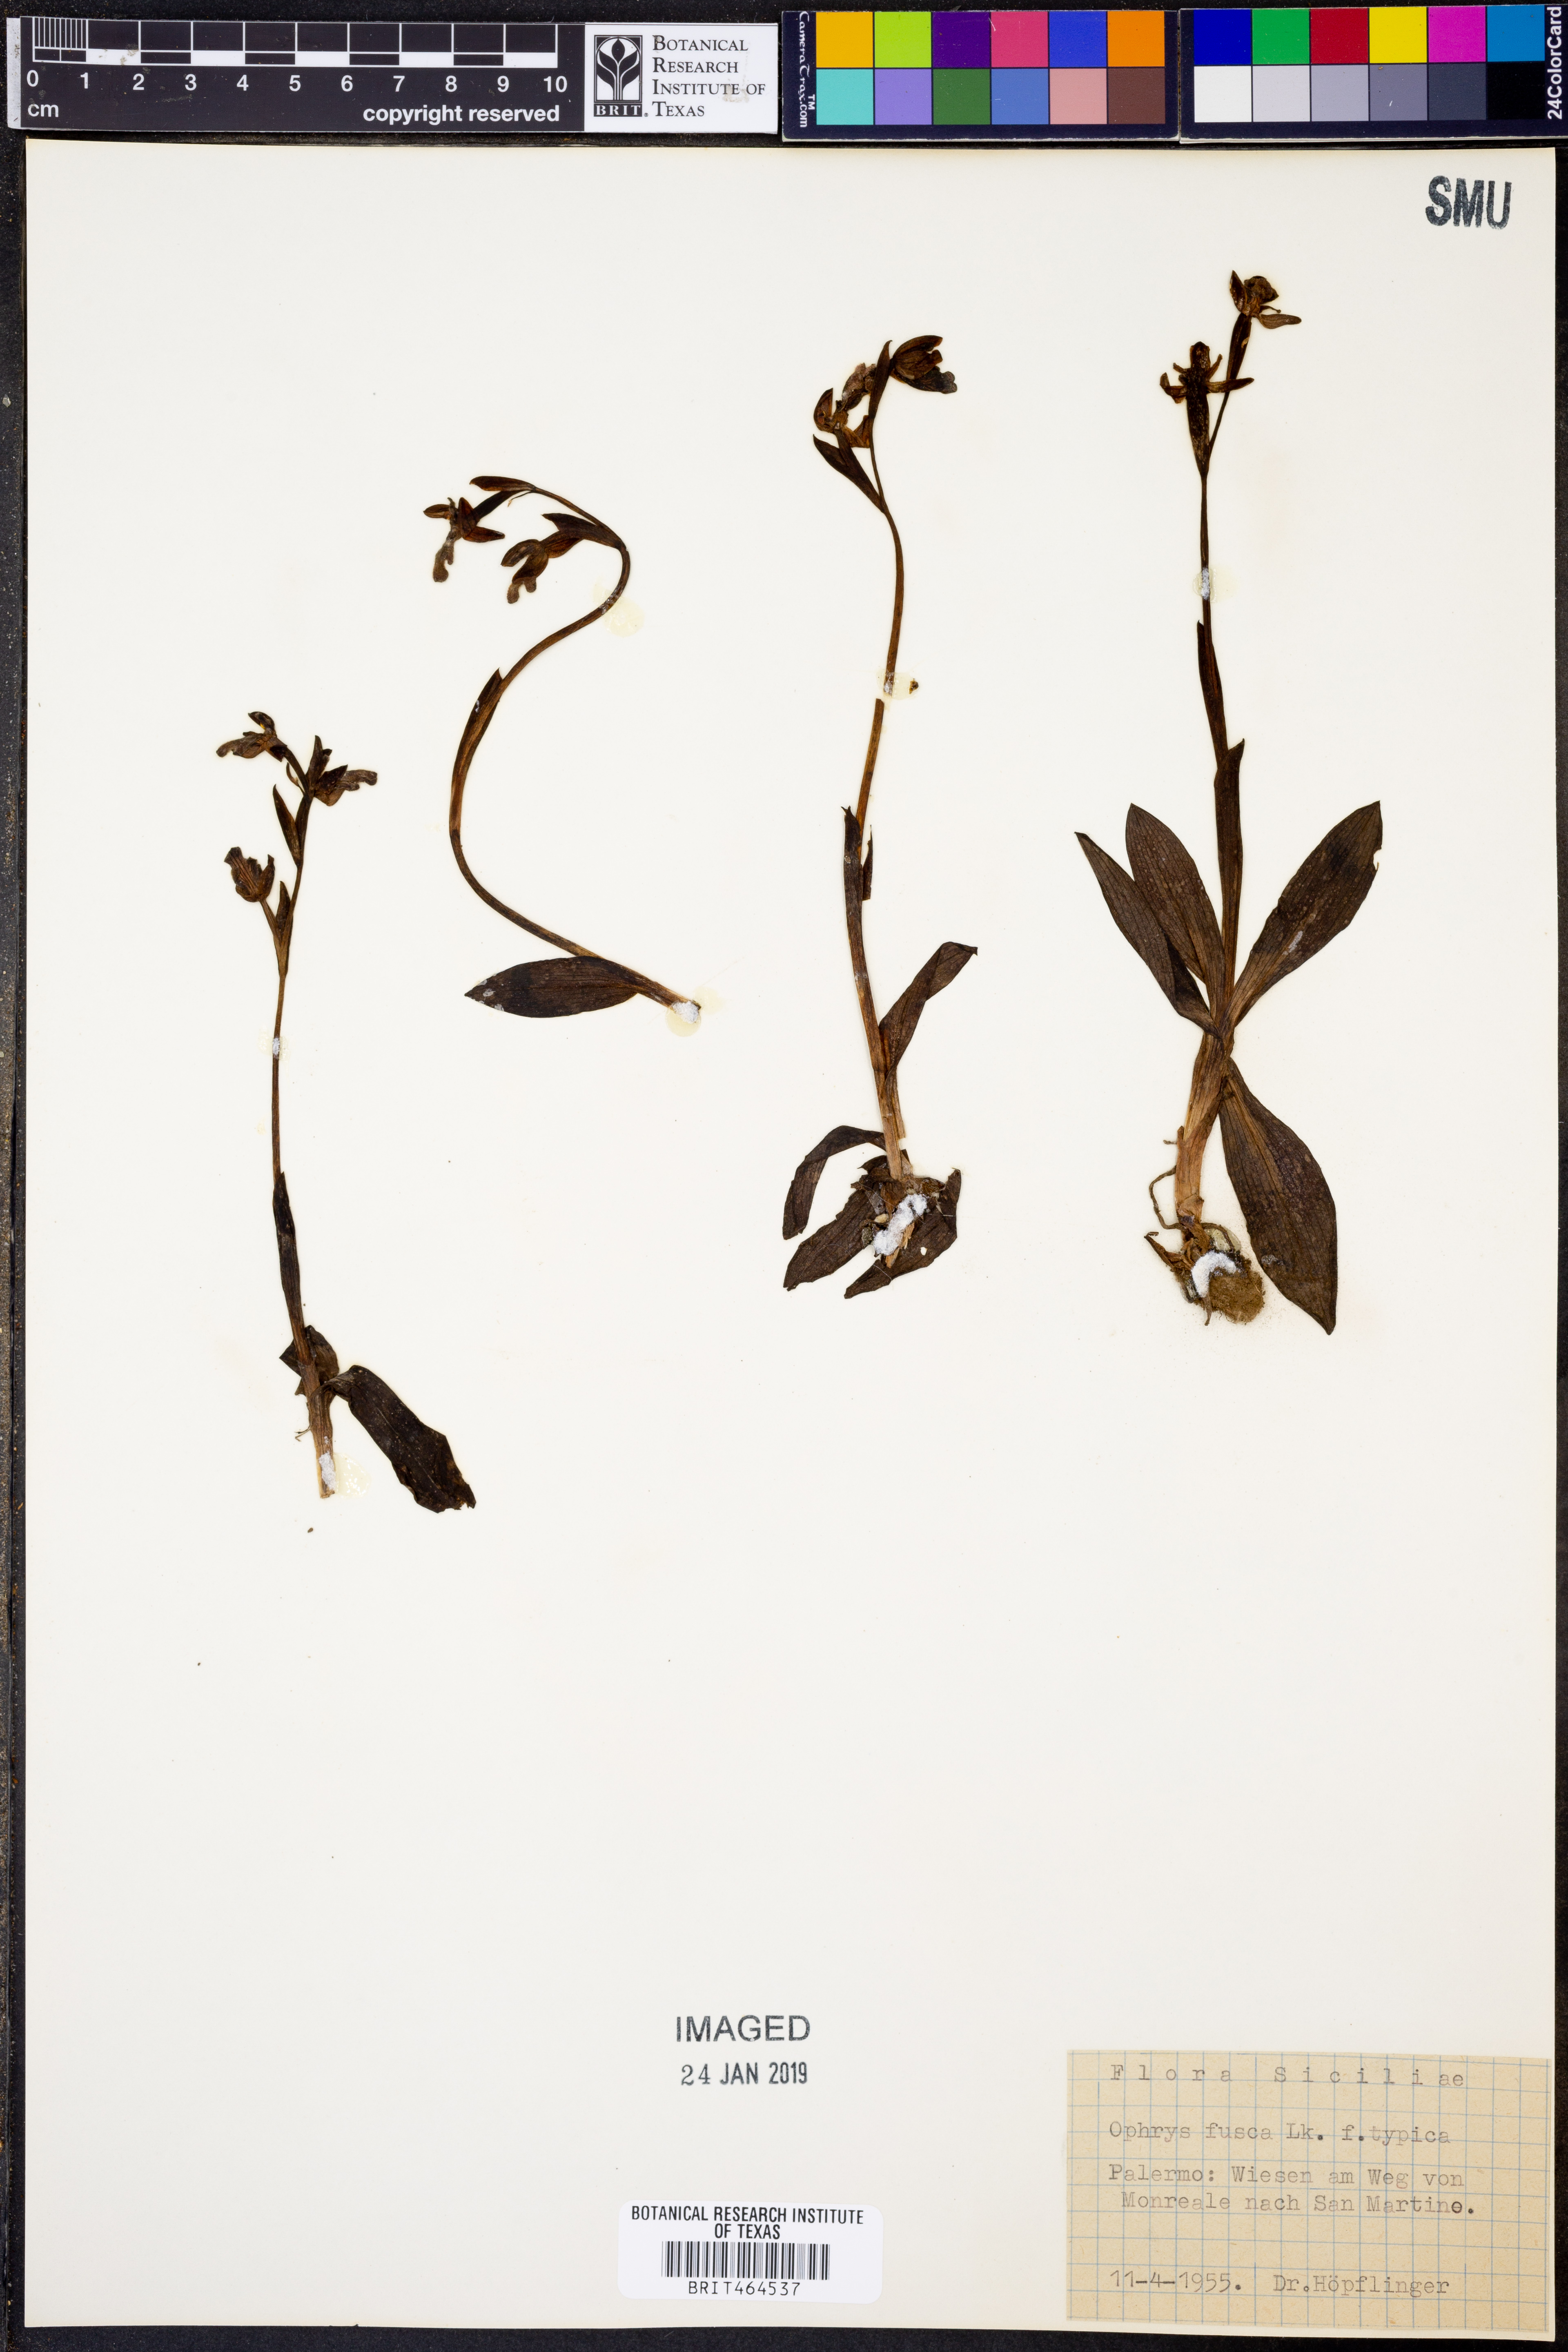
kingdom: Plantae
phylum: Tracheophyta
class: Liliopsida
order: Asparagales
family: Orchidaceae
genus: Ophrys
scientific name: Ophrys fusca
